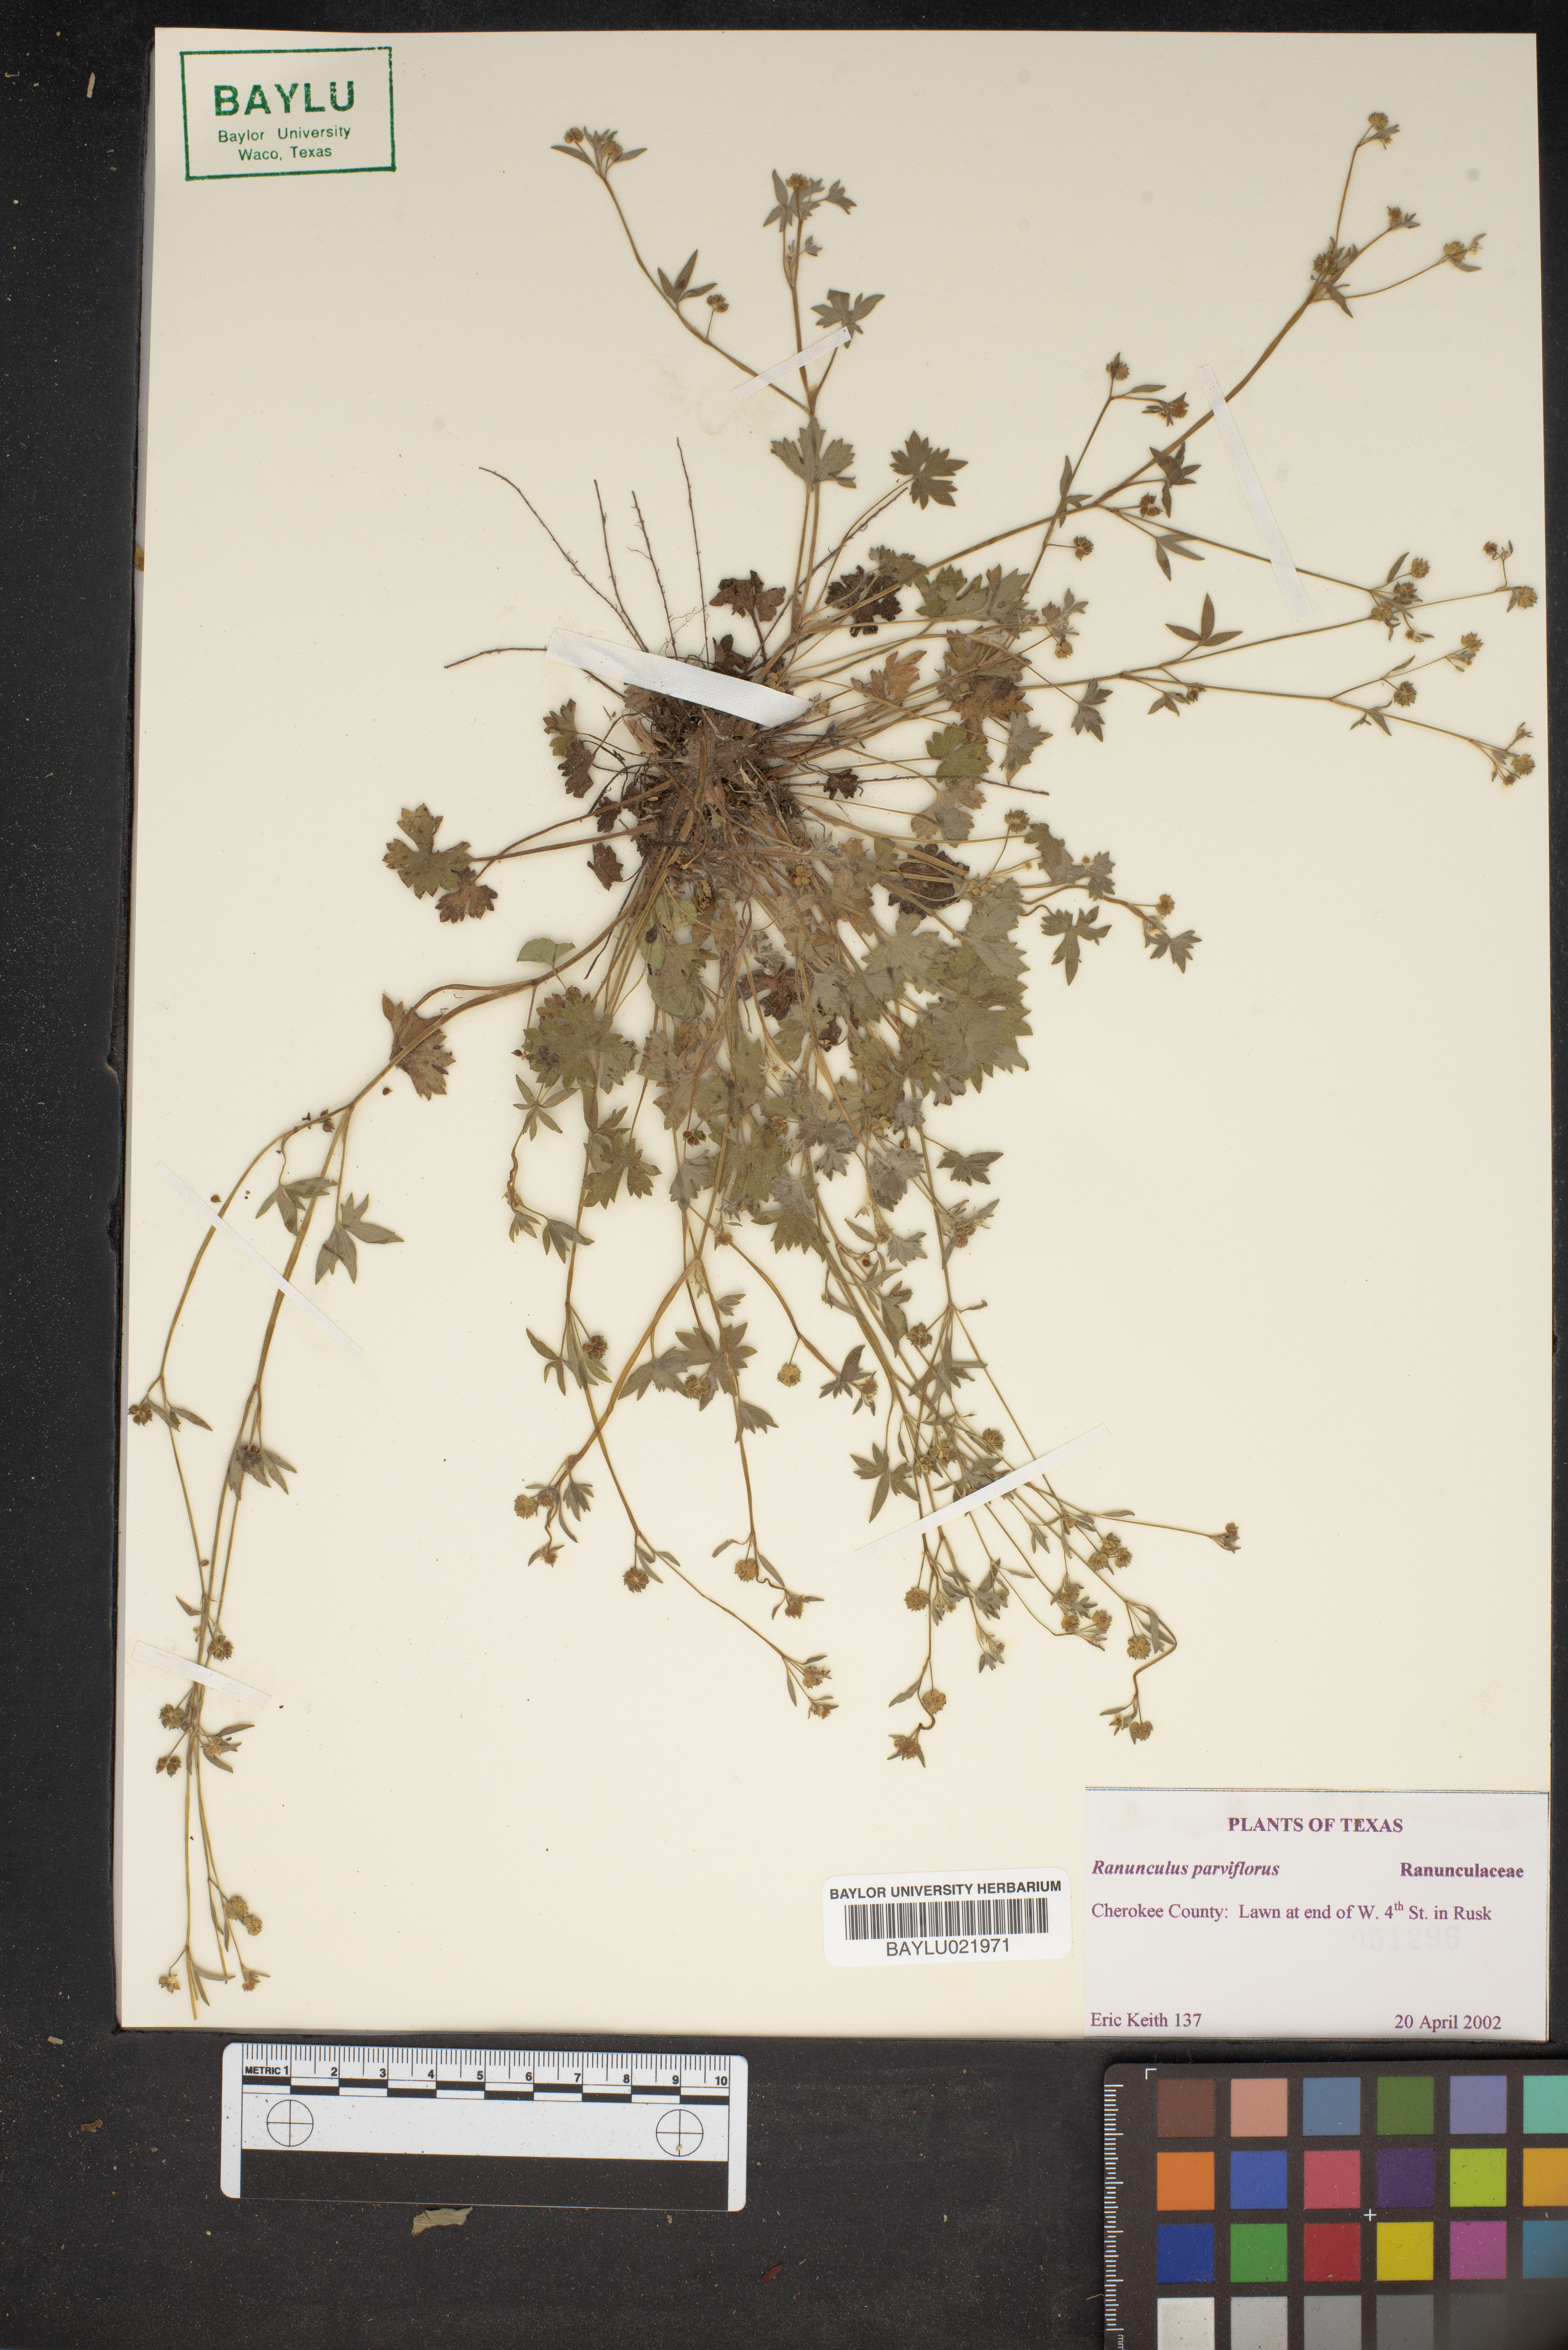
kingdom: Plantae
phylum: Tracheophyta
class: Magnoliopsida
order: Ranunculales
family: Ranunculaceae
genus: Ranunculus
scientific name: Ranunculus parviflorus
